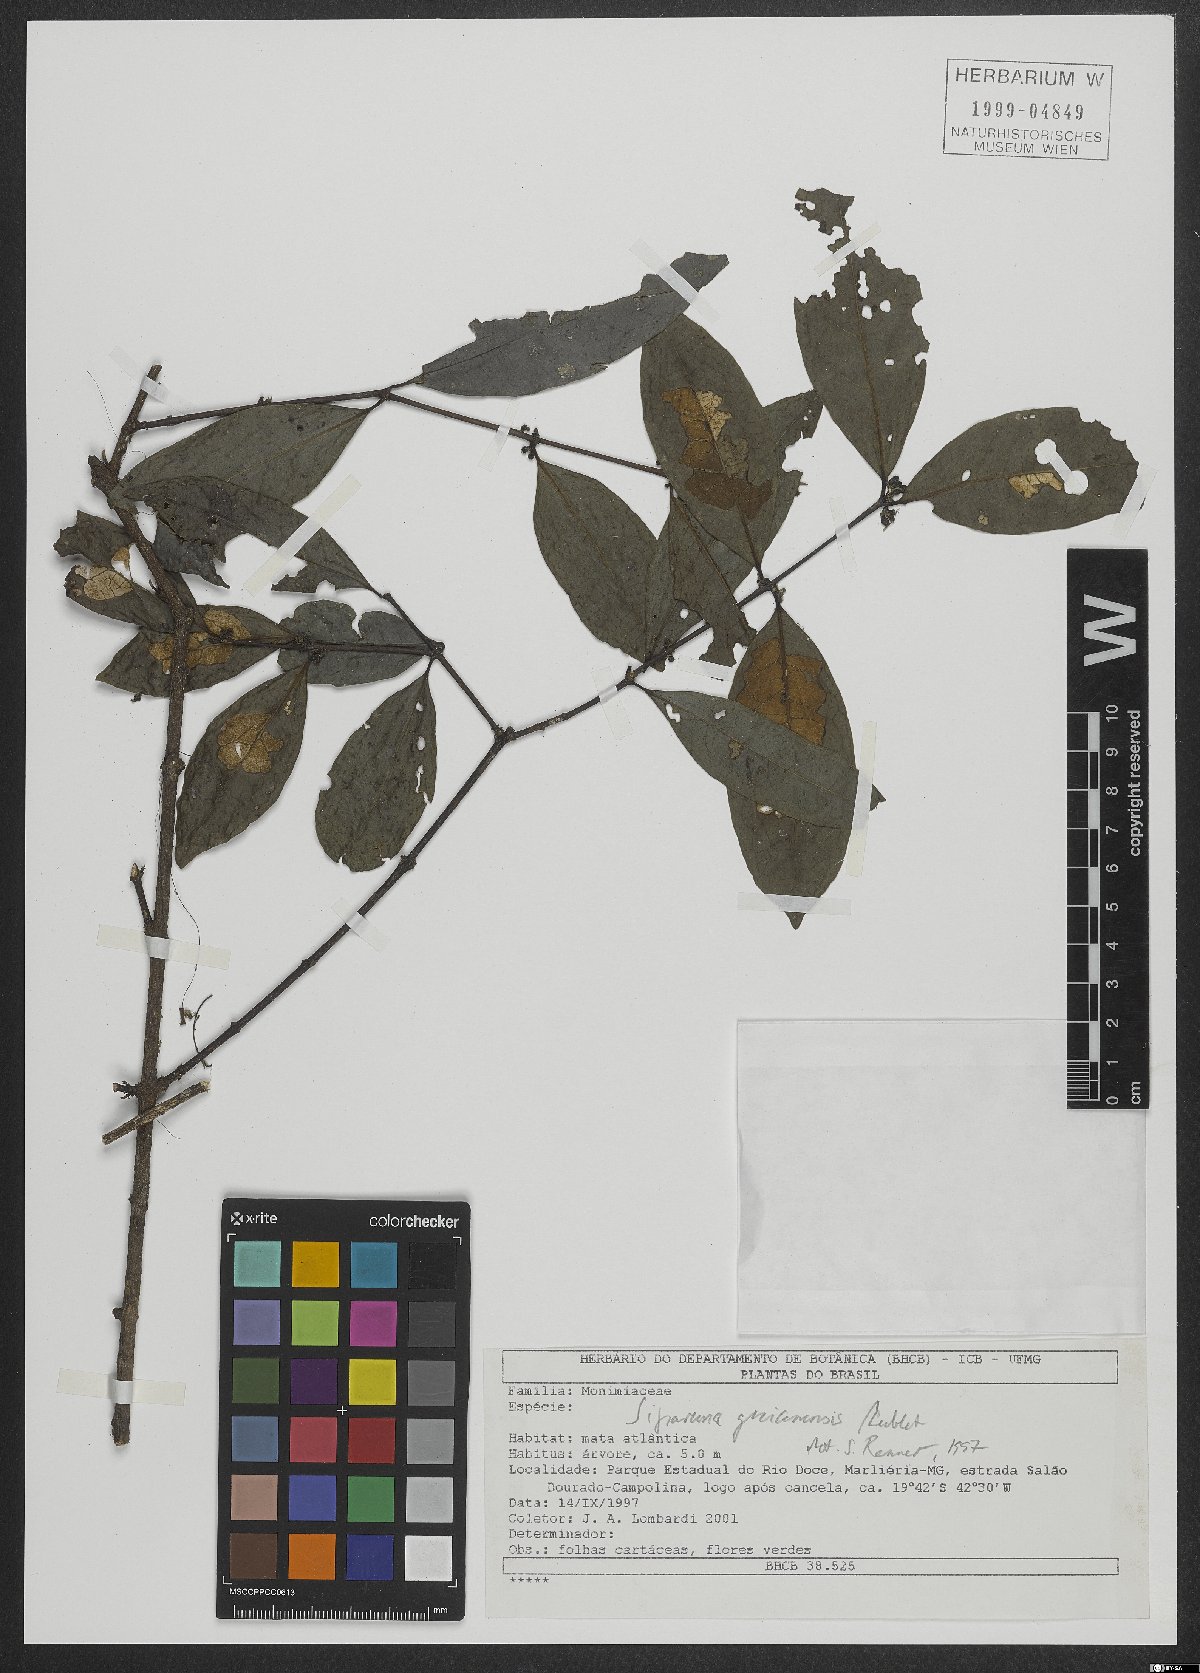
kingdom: Plantae
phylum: Tracheophyta
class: Magnoliopsida
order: Laurales
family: Siparunaceae
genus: Siparuna
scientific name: Siparuna guianensis
